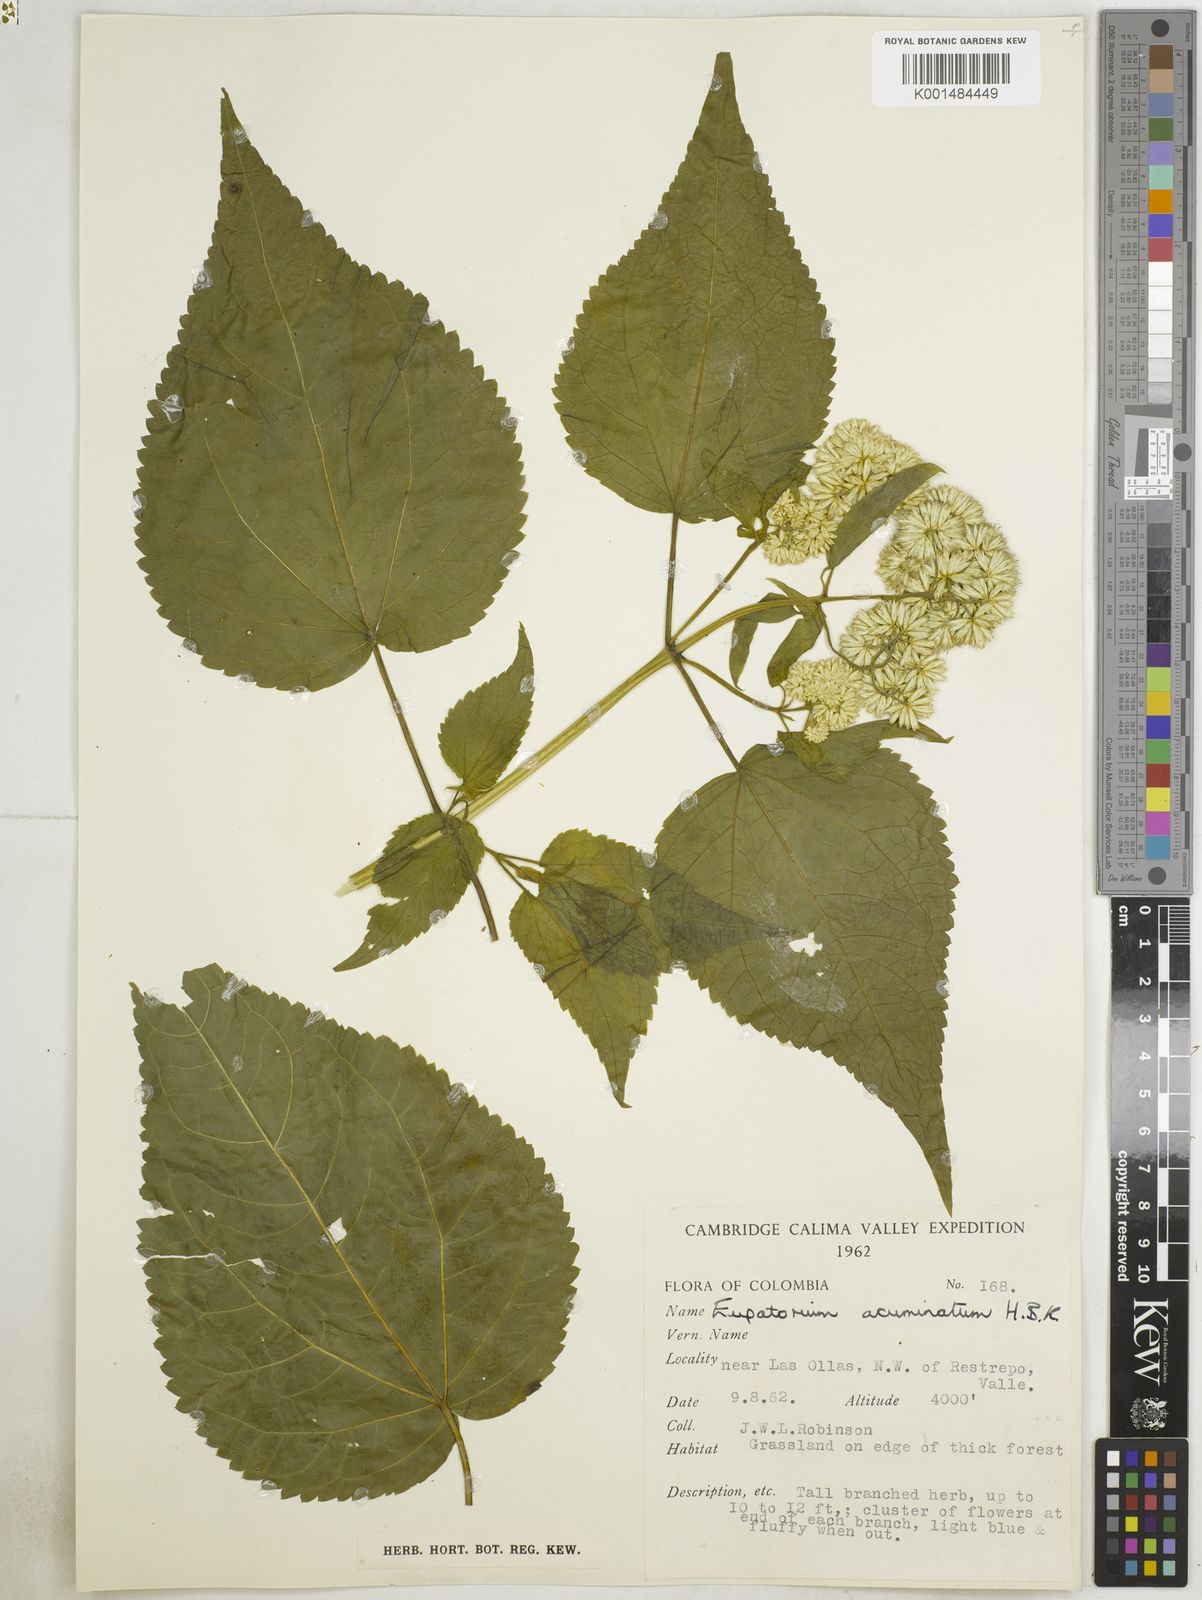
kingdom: Plantae
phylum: Tracheophyta
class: Magnoliopsida
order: Asterales
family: Asteraceae
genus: Critoniella
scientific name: Critoniella acuminata
